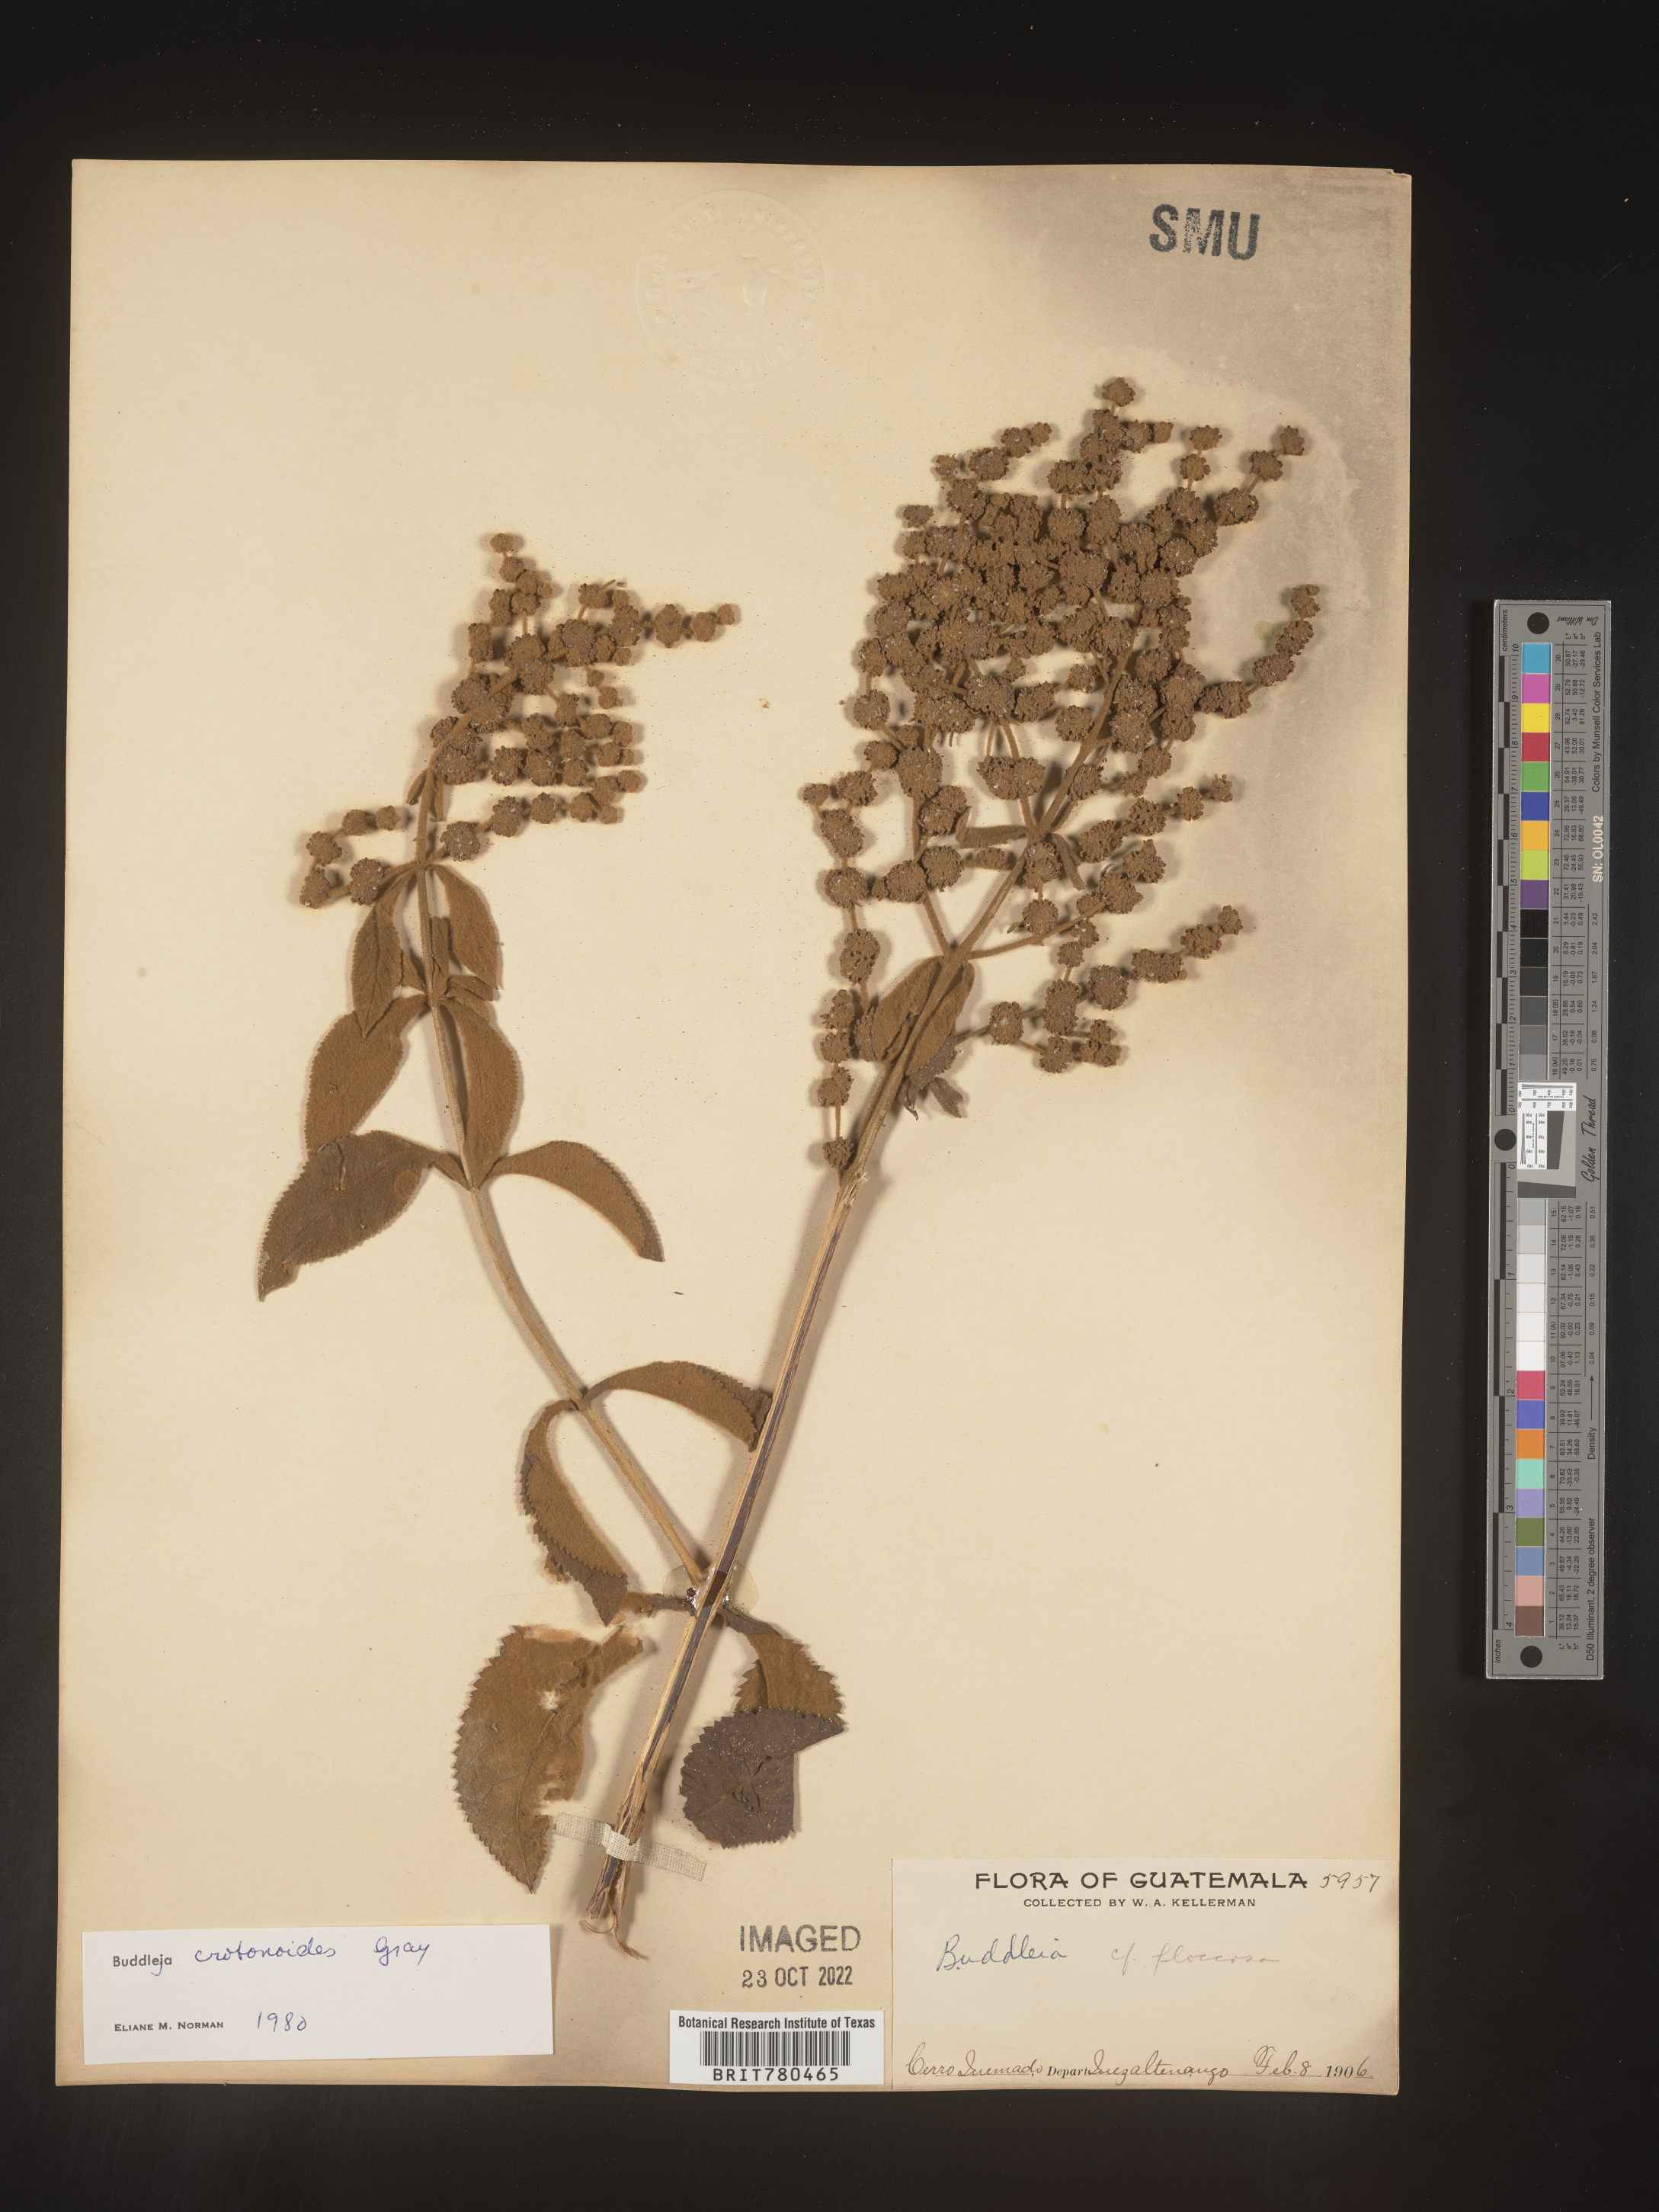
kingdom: Plantae
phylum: Tracheophyta
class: Magnoliopsida
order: Lamiales
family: Scrophulariaceae
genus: Buddleja
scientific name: Buddleja
